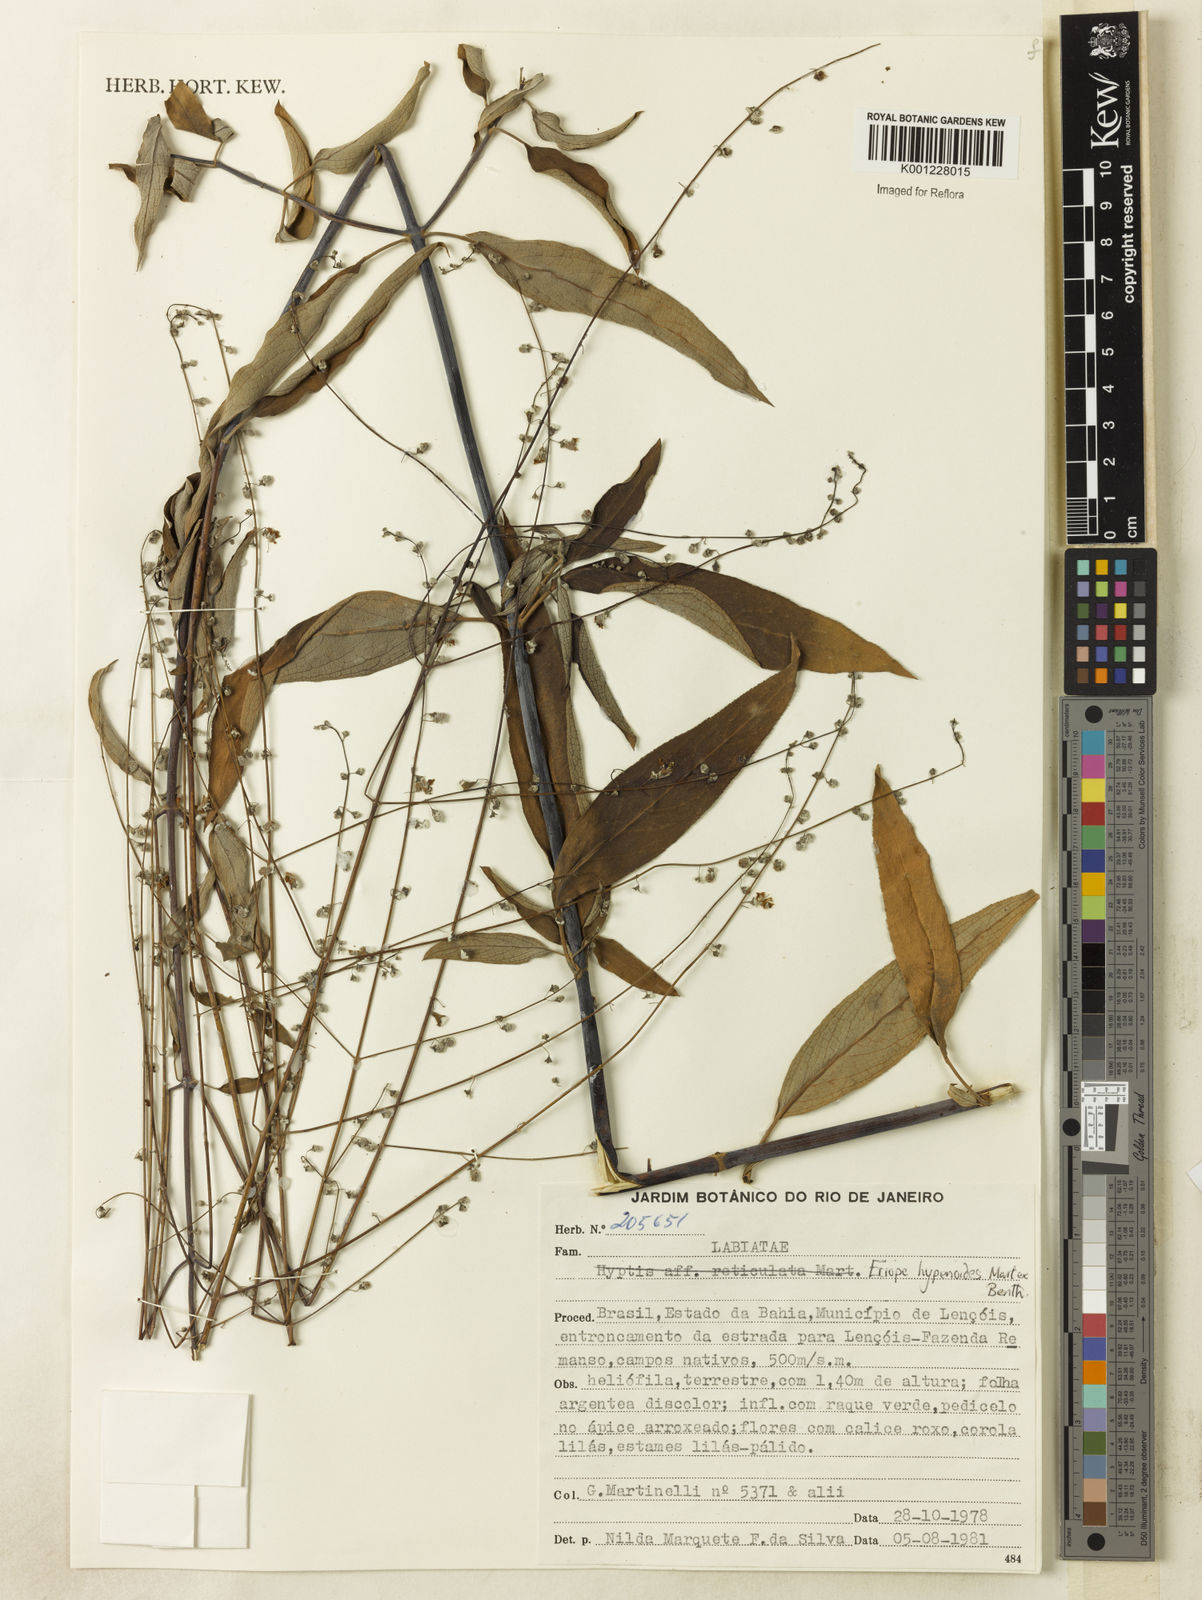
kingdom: Plantae
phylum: Tracheophyta
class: Magnoliopsida
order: Lamiales
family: Lamiaceae
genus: Eriope
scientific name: Eriope hypenioides
